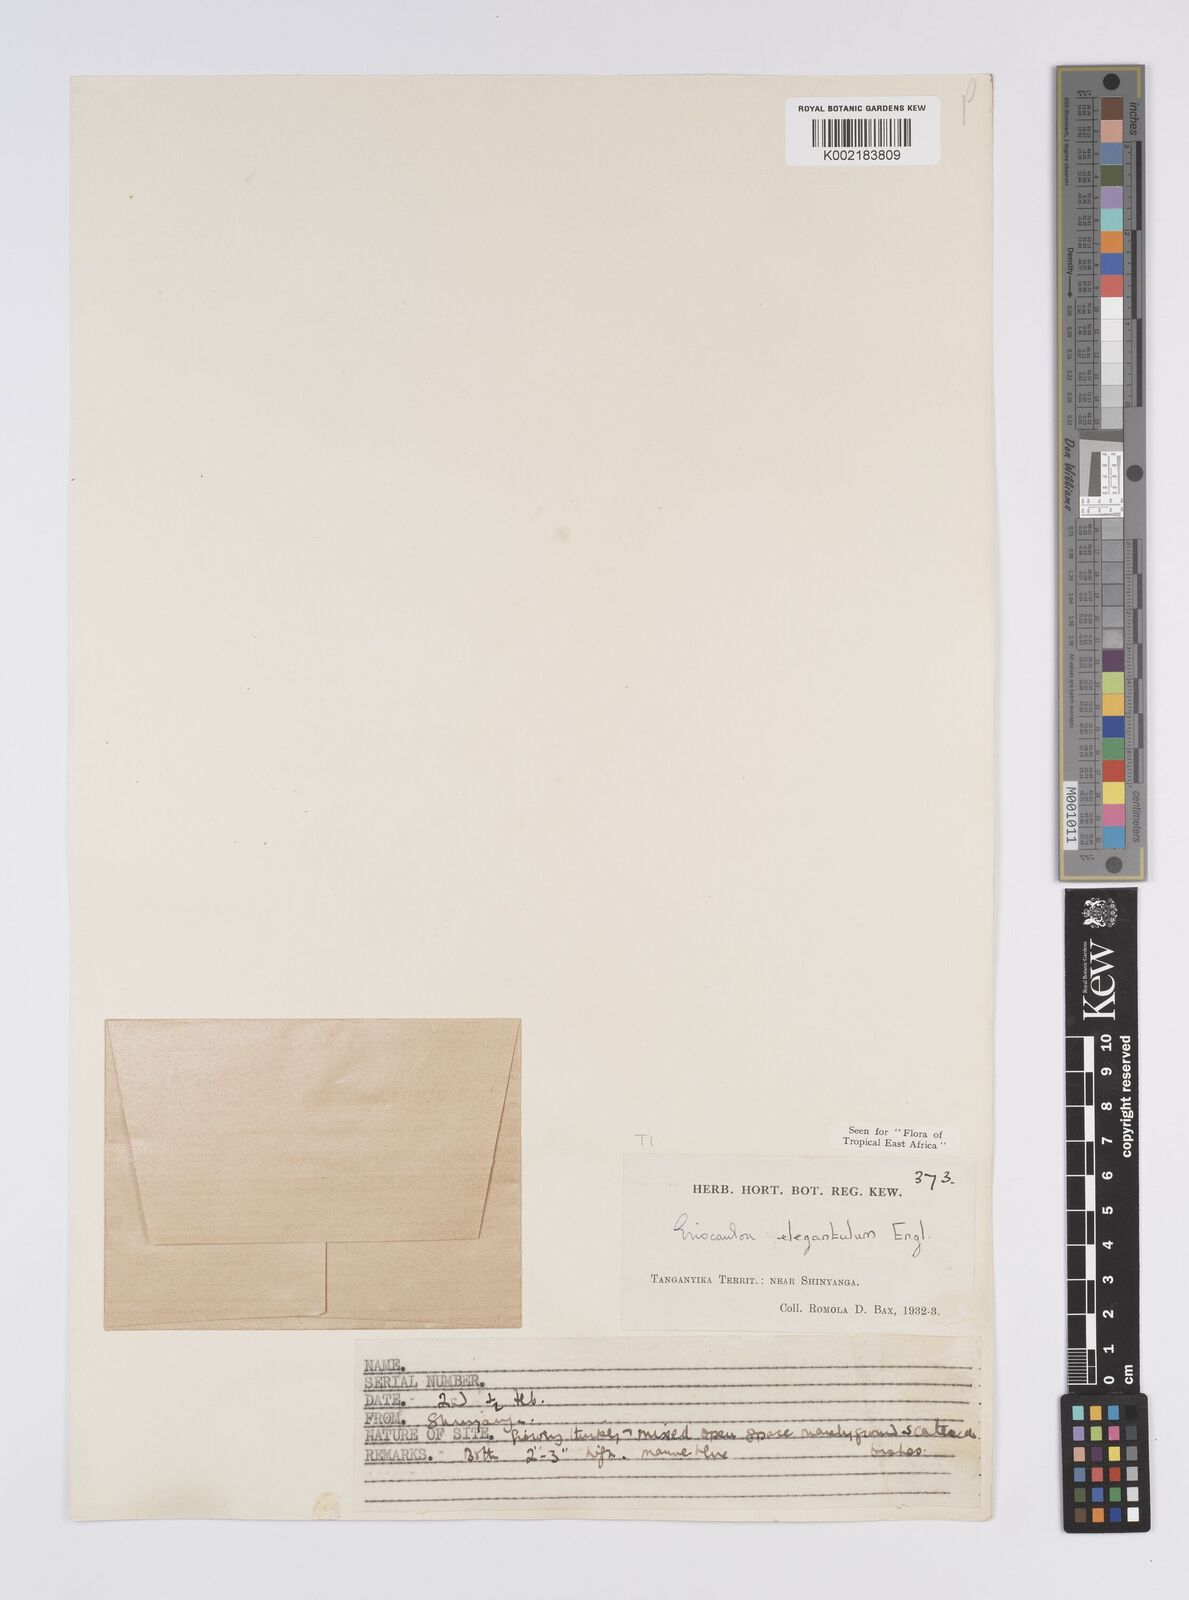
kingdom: Plantae
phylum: Tracheophyta
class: Liliopsida
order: Poales
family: Eriocaulaceae
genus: Eriocaulon
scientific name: Eriocaulon elegantulum
